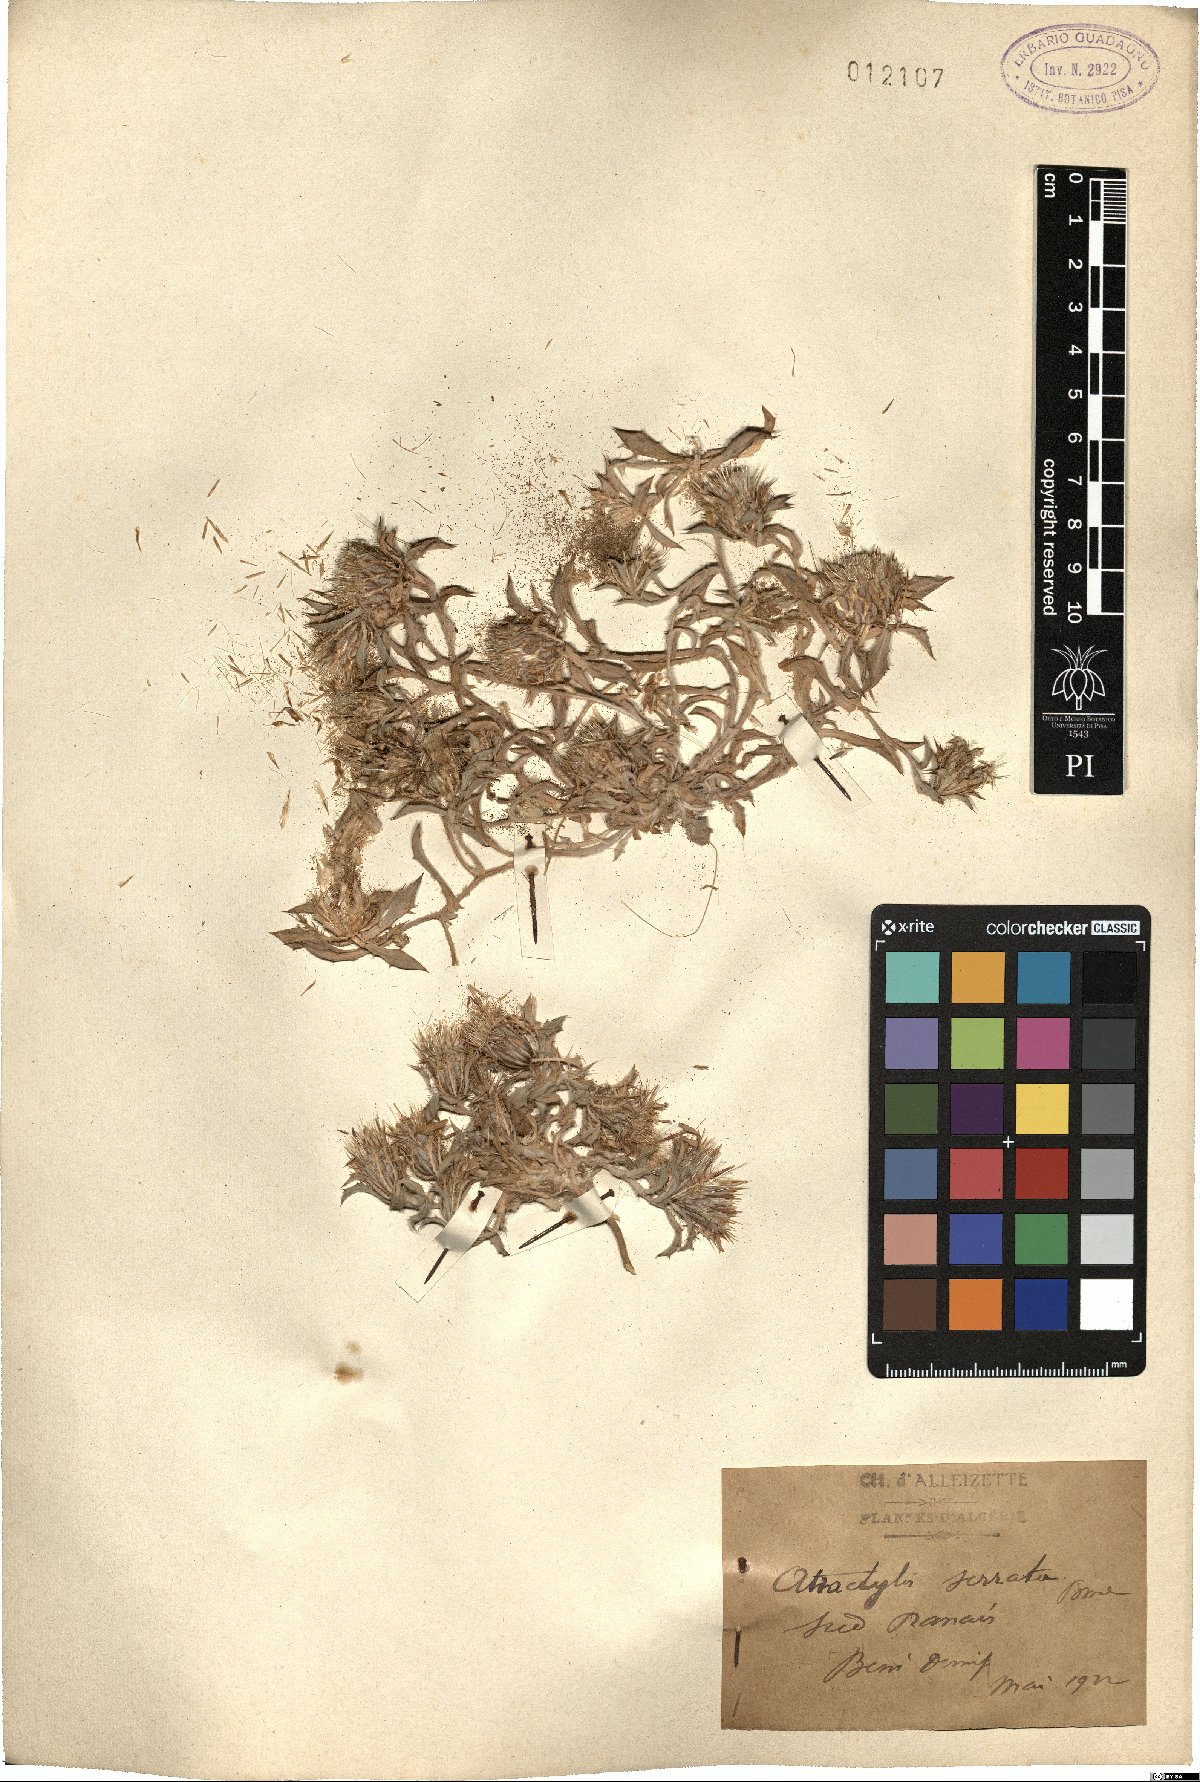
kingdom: Plantae
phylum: Tracheophyta
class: Magnoliopsida
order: Asterales
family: Asteraceae
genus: Atractylis
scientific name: Atractylis serrata
